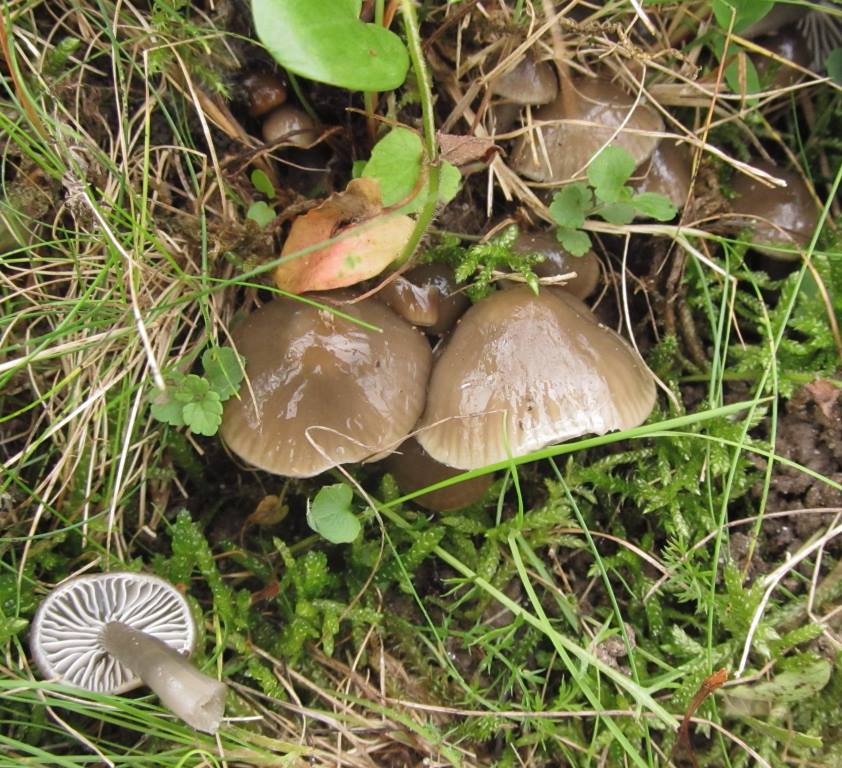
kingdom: Fungi
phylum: Basidiomycota
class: Agaricomycetes
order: Agaricales
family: Hygrophoraceae
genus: Gliophorus
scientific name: Gliophorus irrigatus
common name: slimet vokshat
